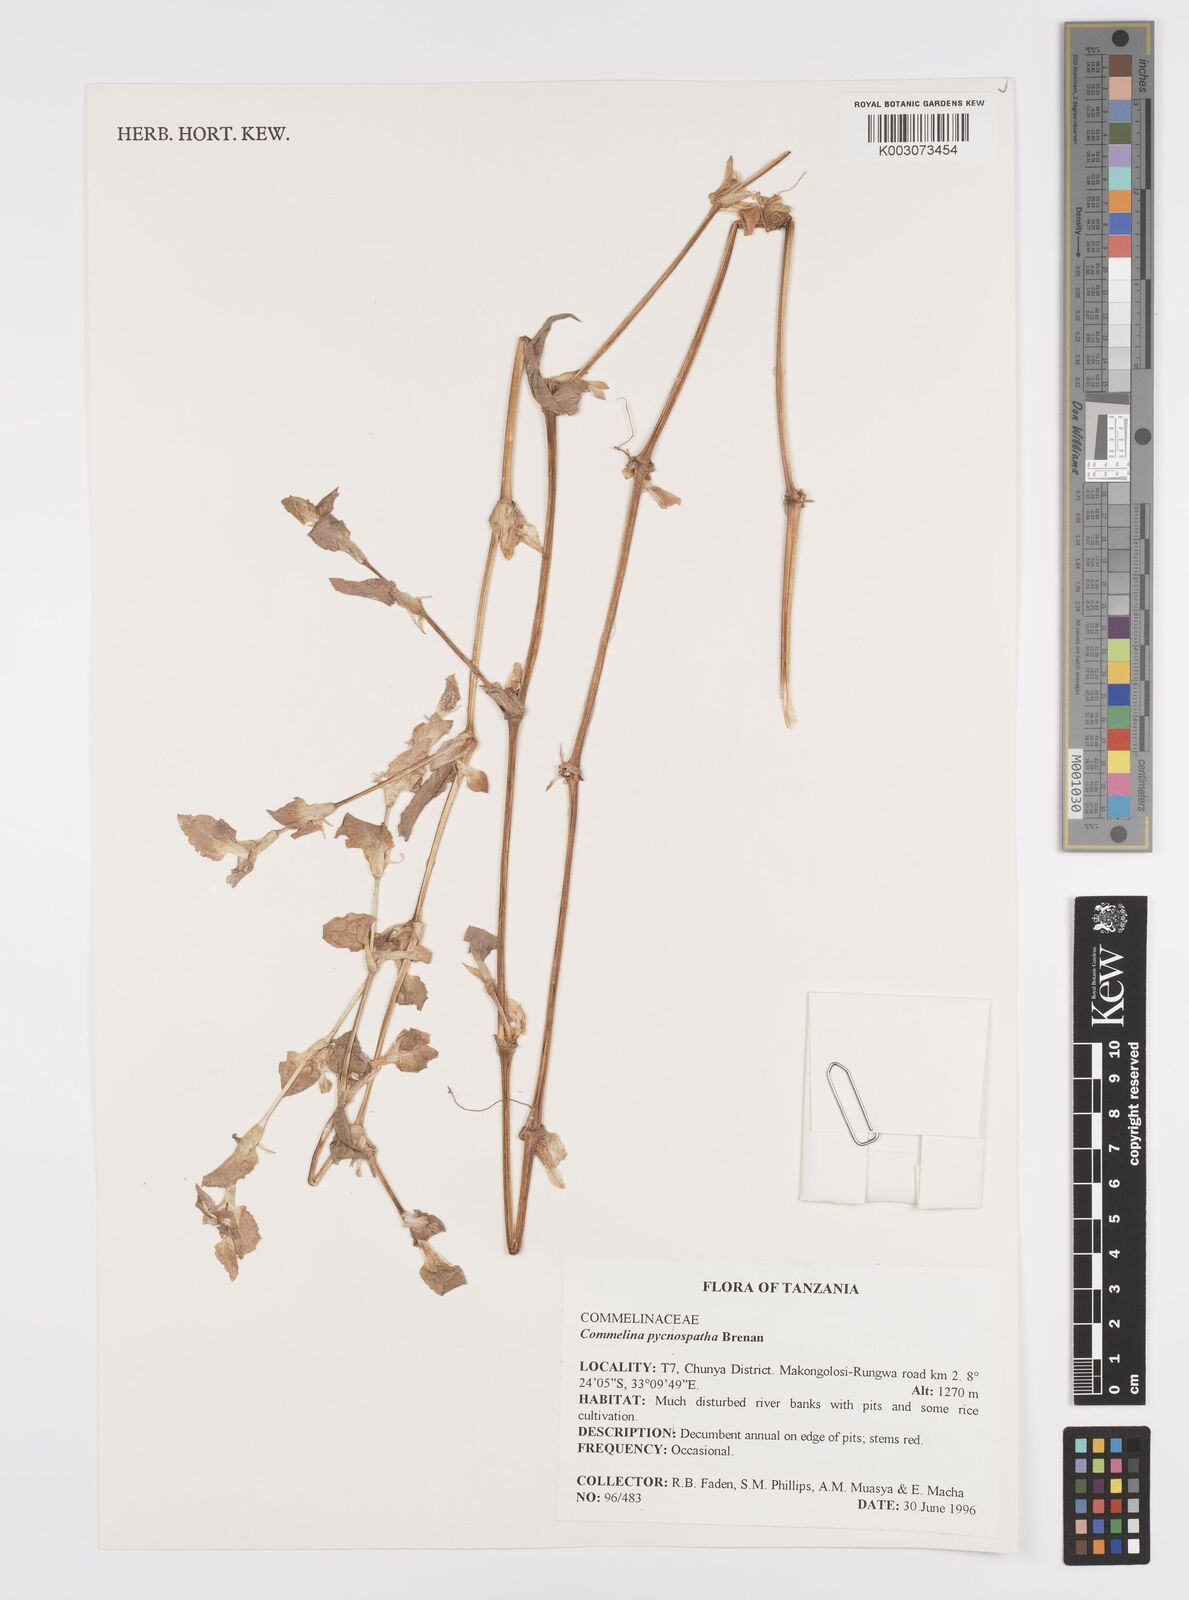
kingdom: Plantae
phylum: Tracheophyta
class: Liliopsida
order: Commelinales
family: Commelinaceae
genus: Commelina
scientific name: Commelina pycnospatha
